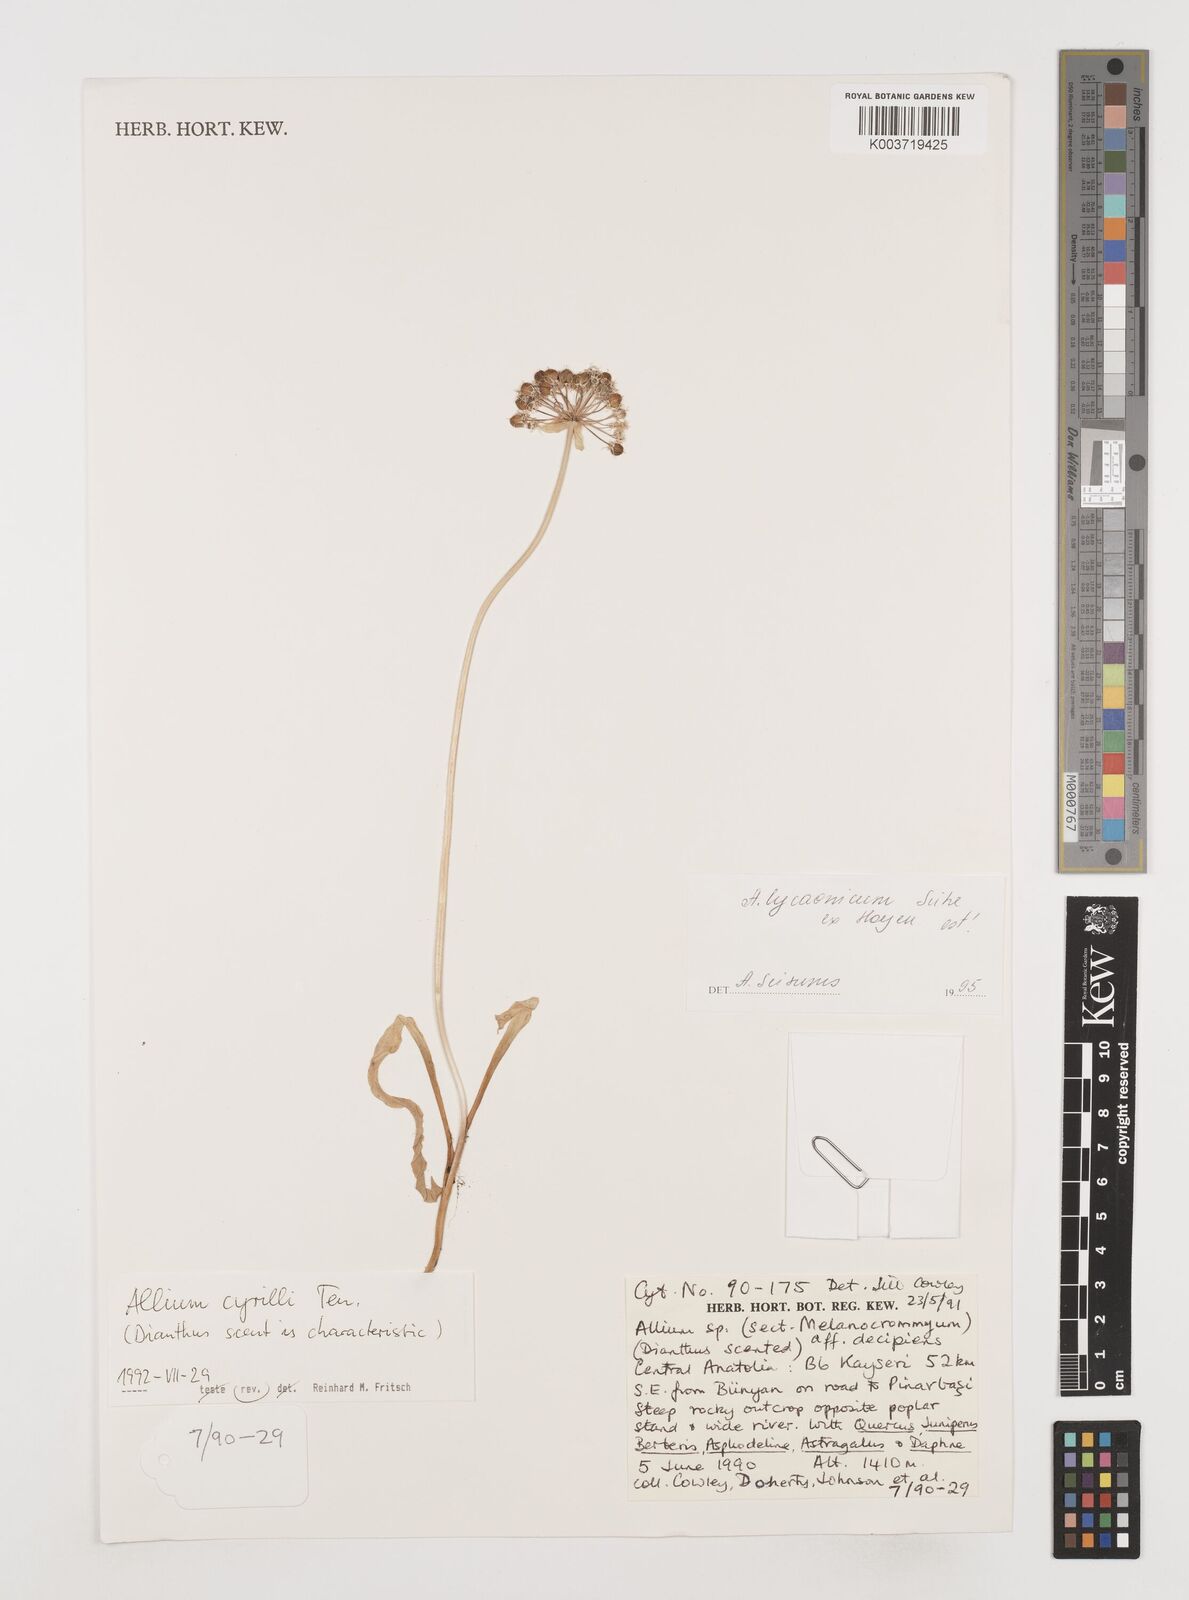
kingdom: Plantae
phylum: Tracheophyta
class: Liliopsida
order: Asparagales
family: Amaryllidaceae
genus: Allium
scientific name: Allium cyrilli
